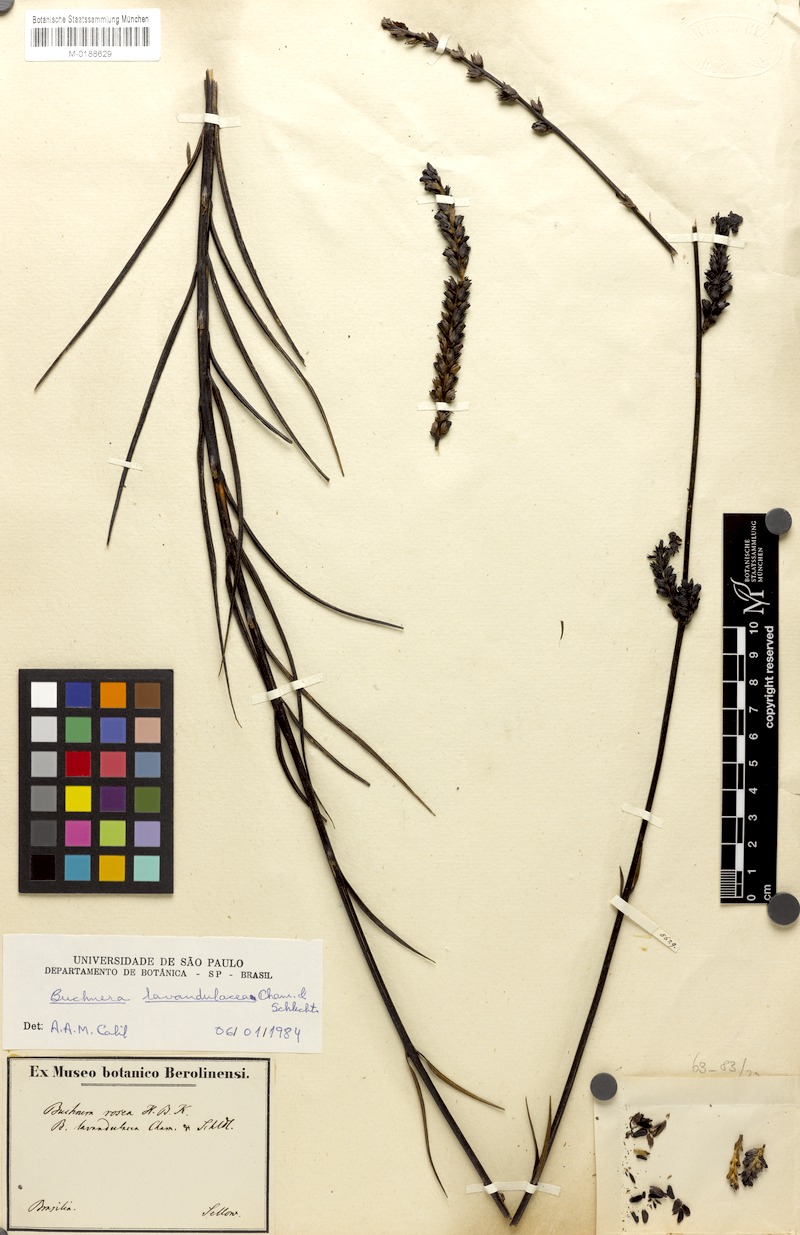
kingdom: Plantae
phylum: Tracheophyta
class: Magnoliopsida
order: Lamiales
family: Orobanchaceae
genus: Buchnera
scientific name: Buchnera lavandulacea
